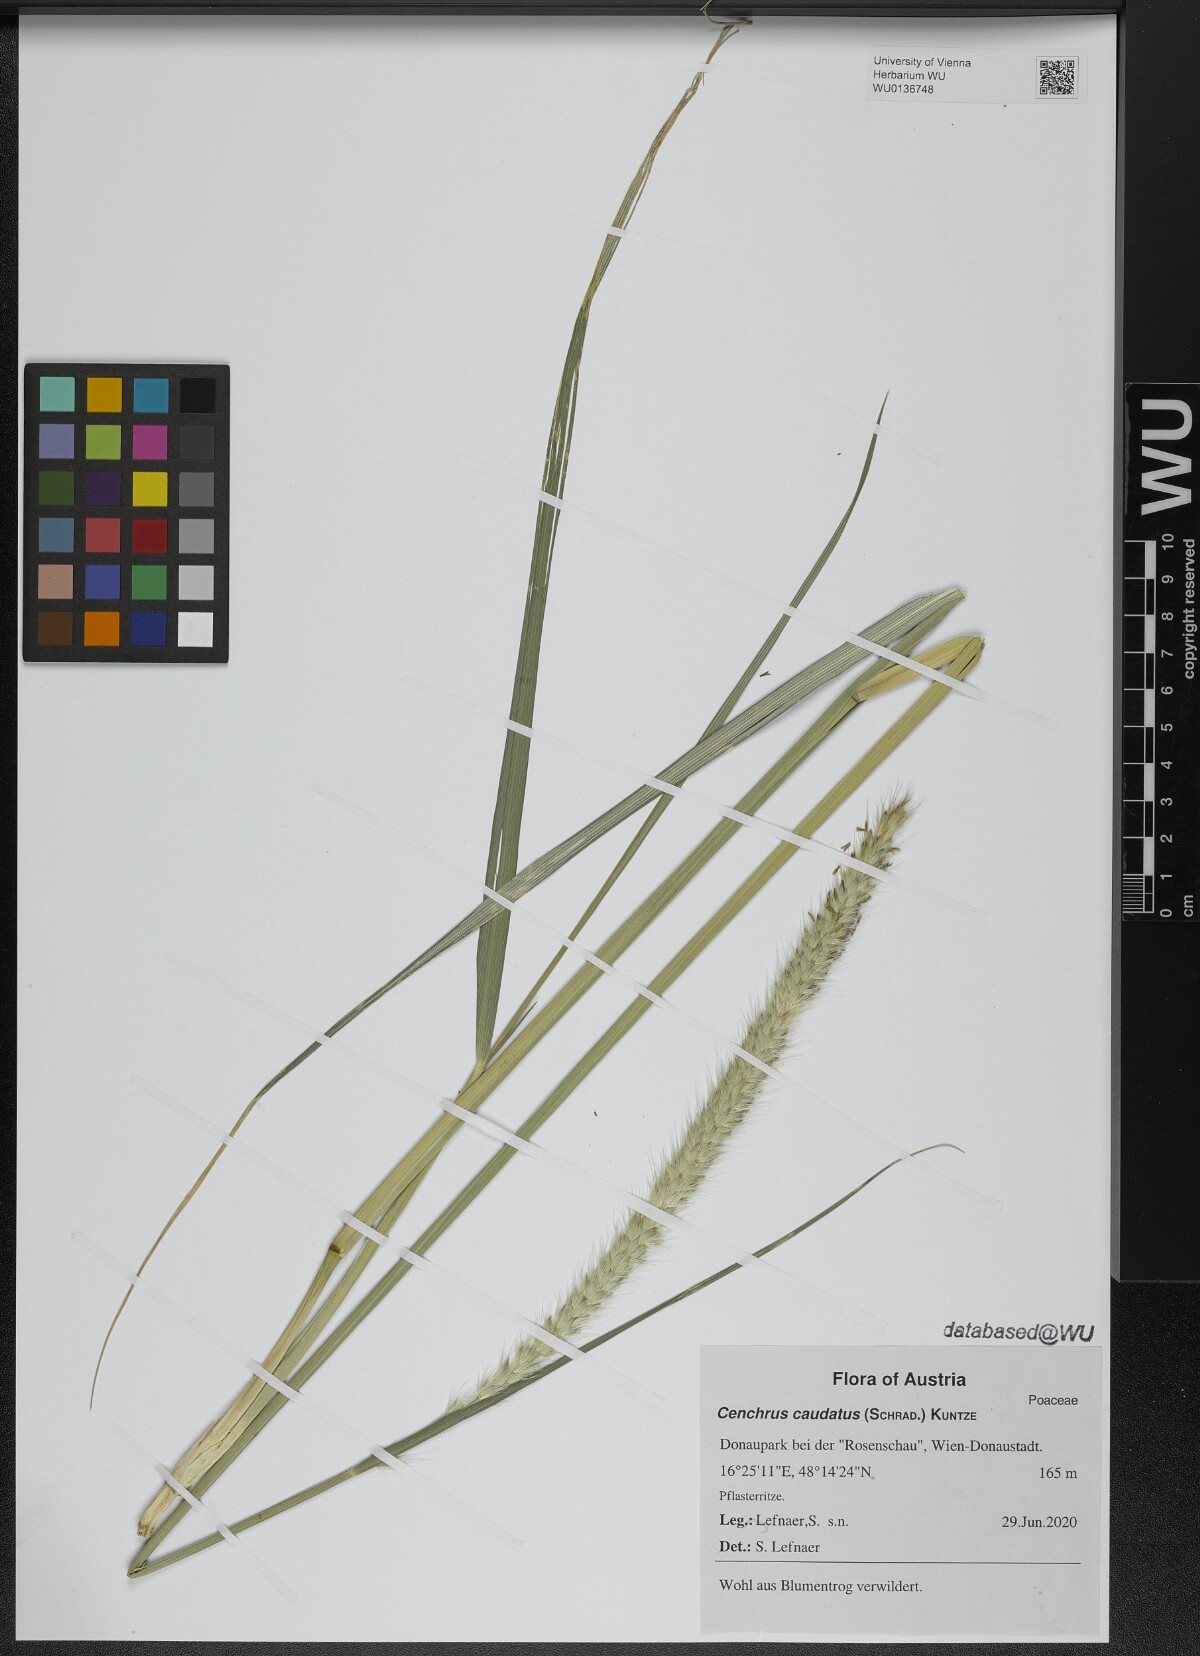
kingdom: Plantae
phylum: Tracheophyta
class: Liliopsida
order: Poales
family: Poaceae
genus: Cenchrus
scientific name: Cenchrus caudatus
